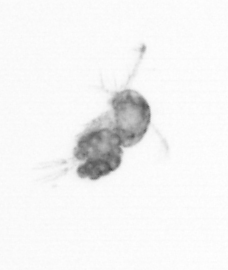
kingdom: Animalia
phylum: Arthropoda
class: Copepoda
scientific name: Copepoda
